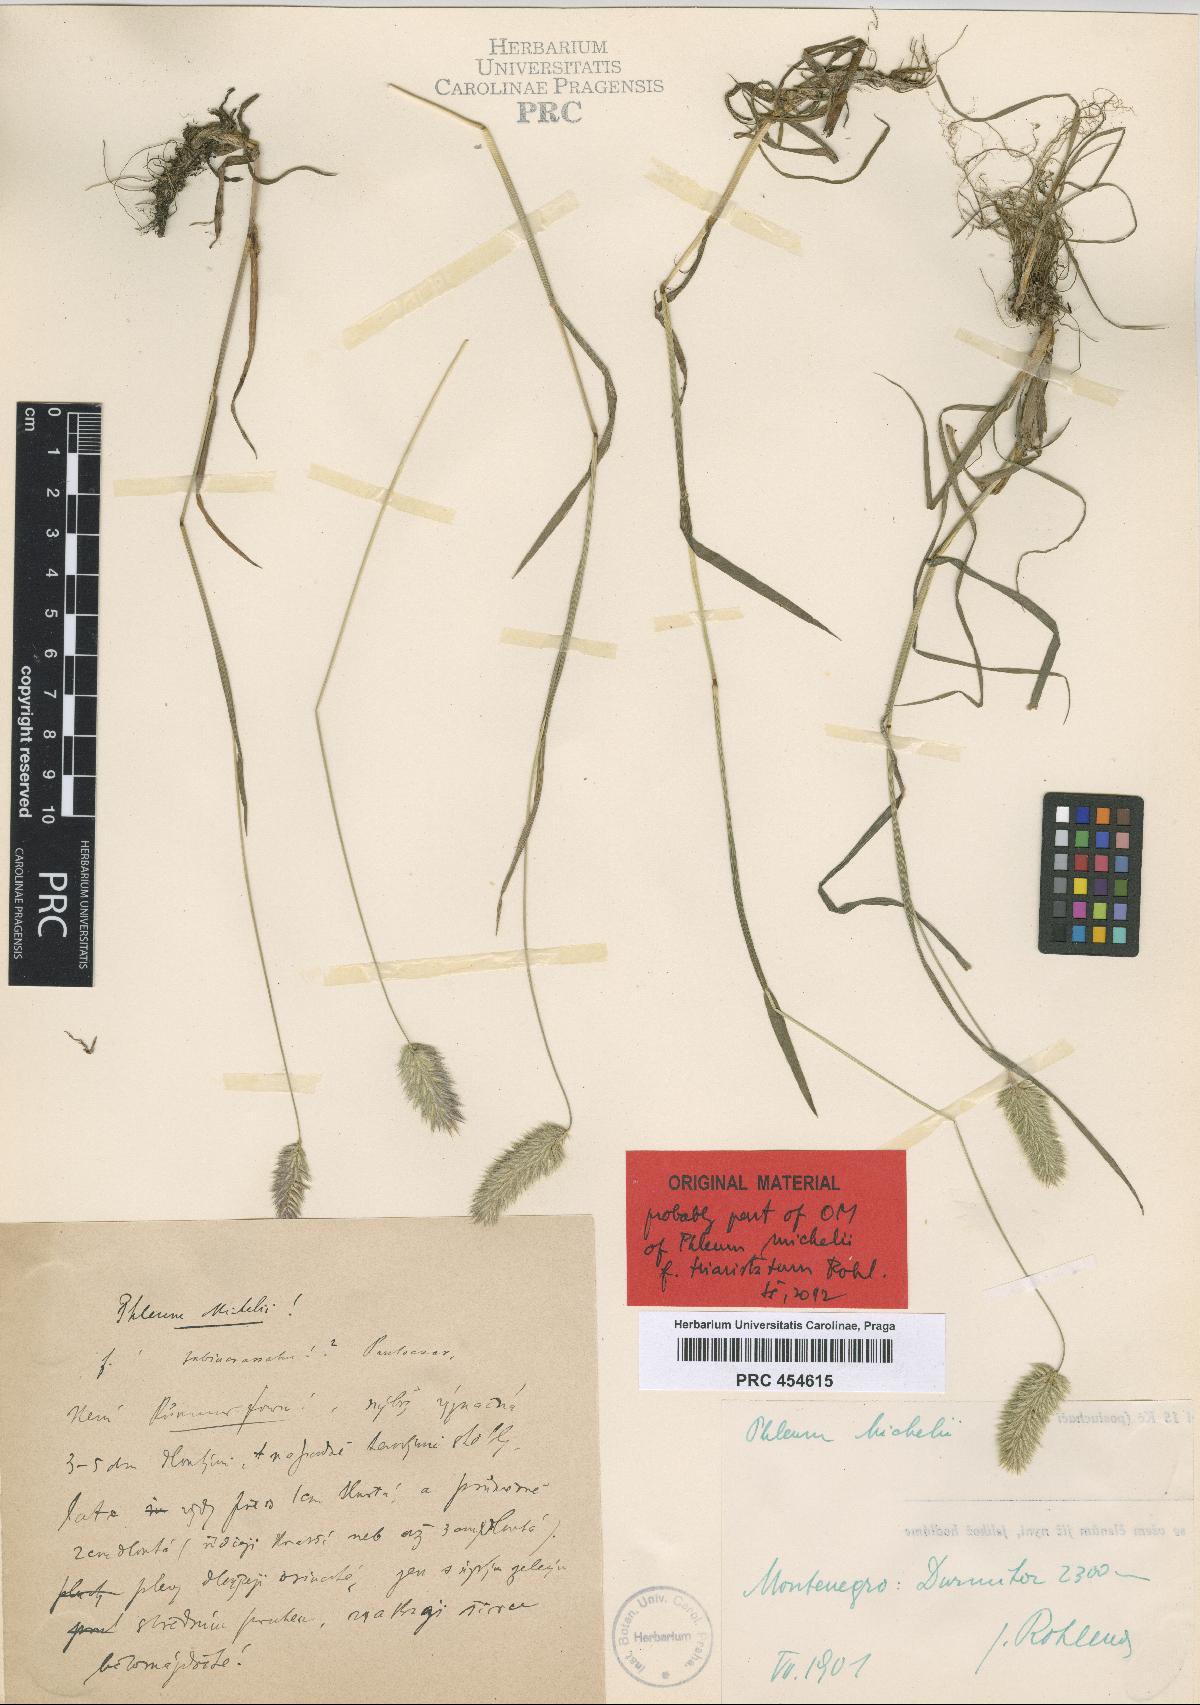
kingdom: Plantae
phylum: Tracheophyta
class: Liliopsida
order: Poales
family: Poaceae
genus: Phleum
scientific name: Phleum hirsutum
